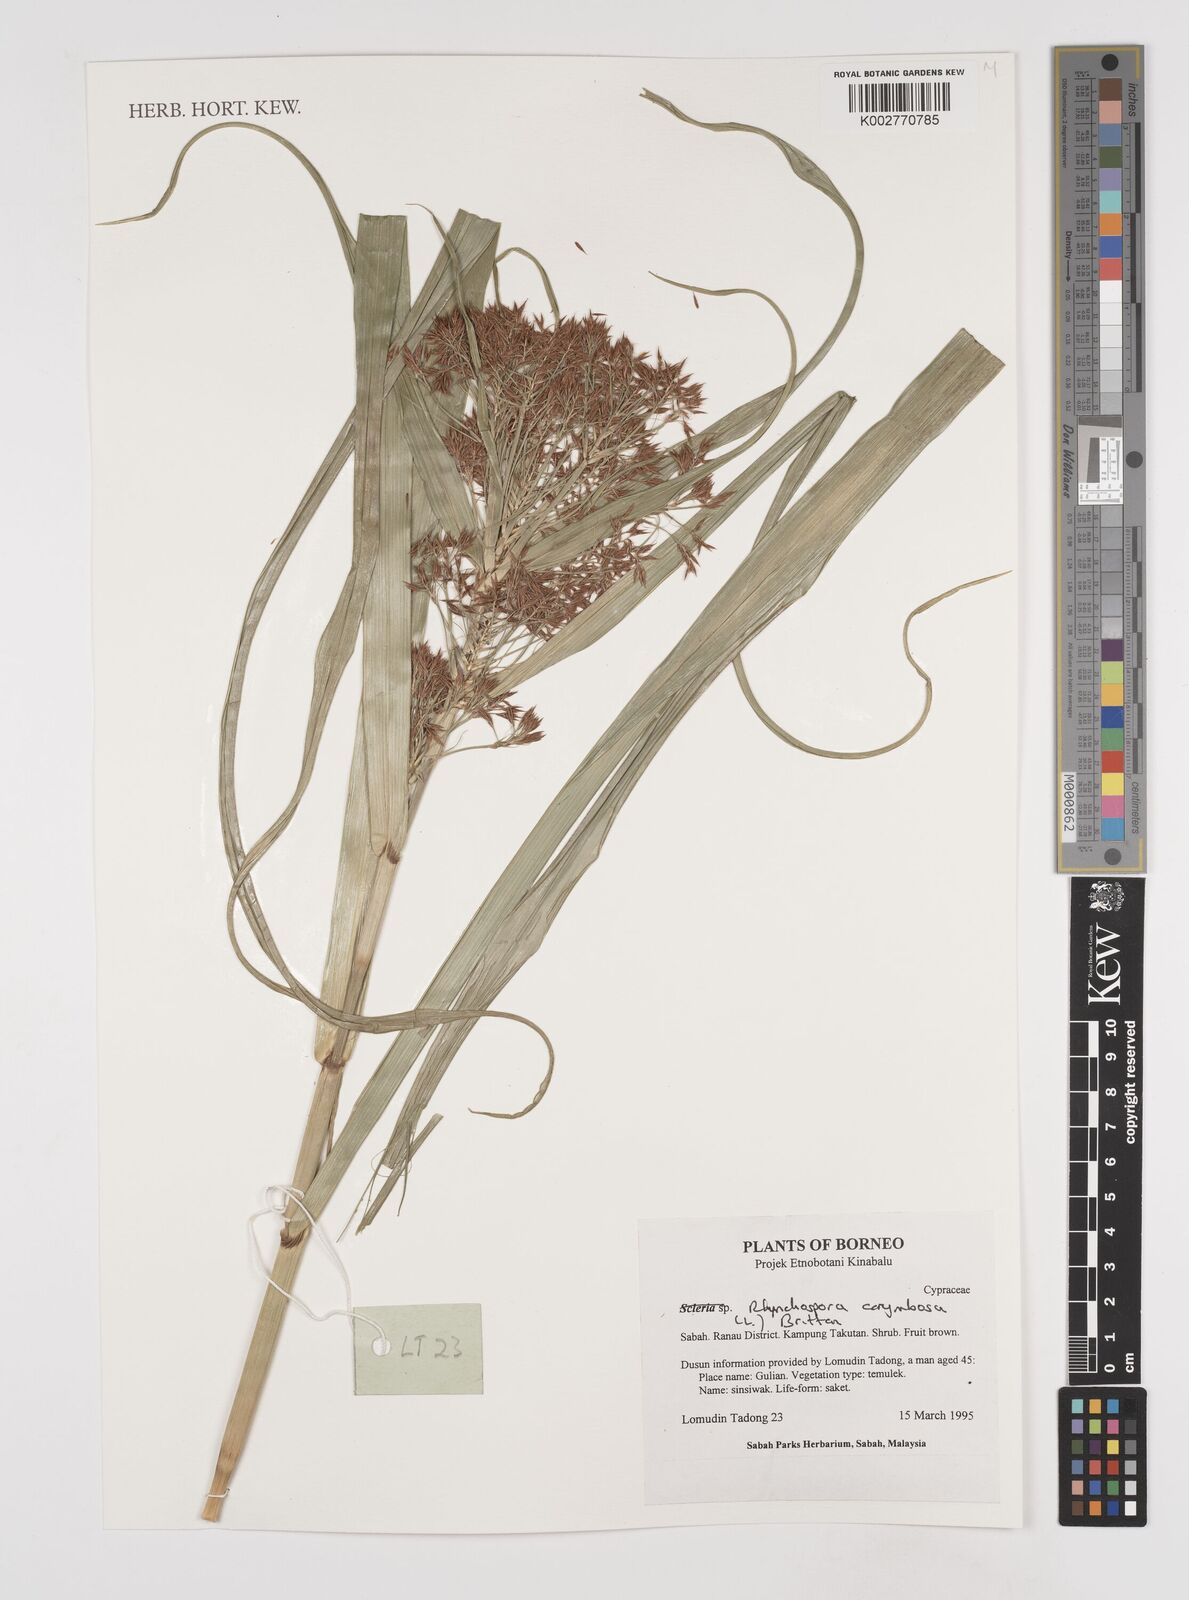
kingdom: Plantae
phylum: Tracheophyta
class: Liliopsida
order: Poales
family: Cyperaceae
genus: Rhynchospora
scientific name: Rhynchospora corymbosa
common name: Golden beak sedge
